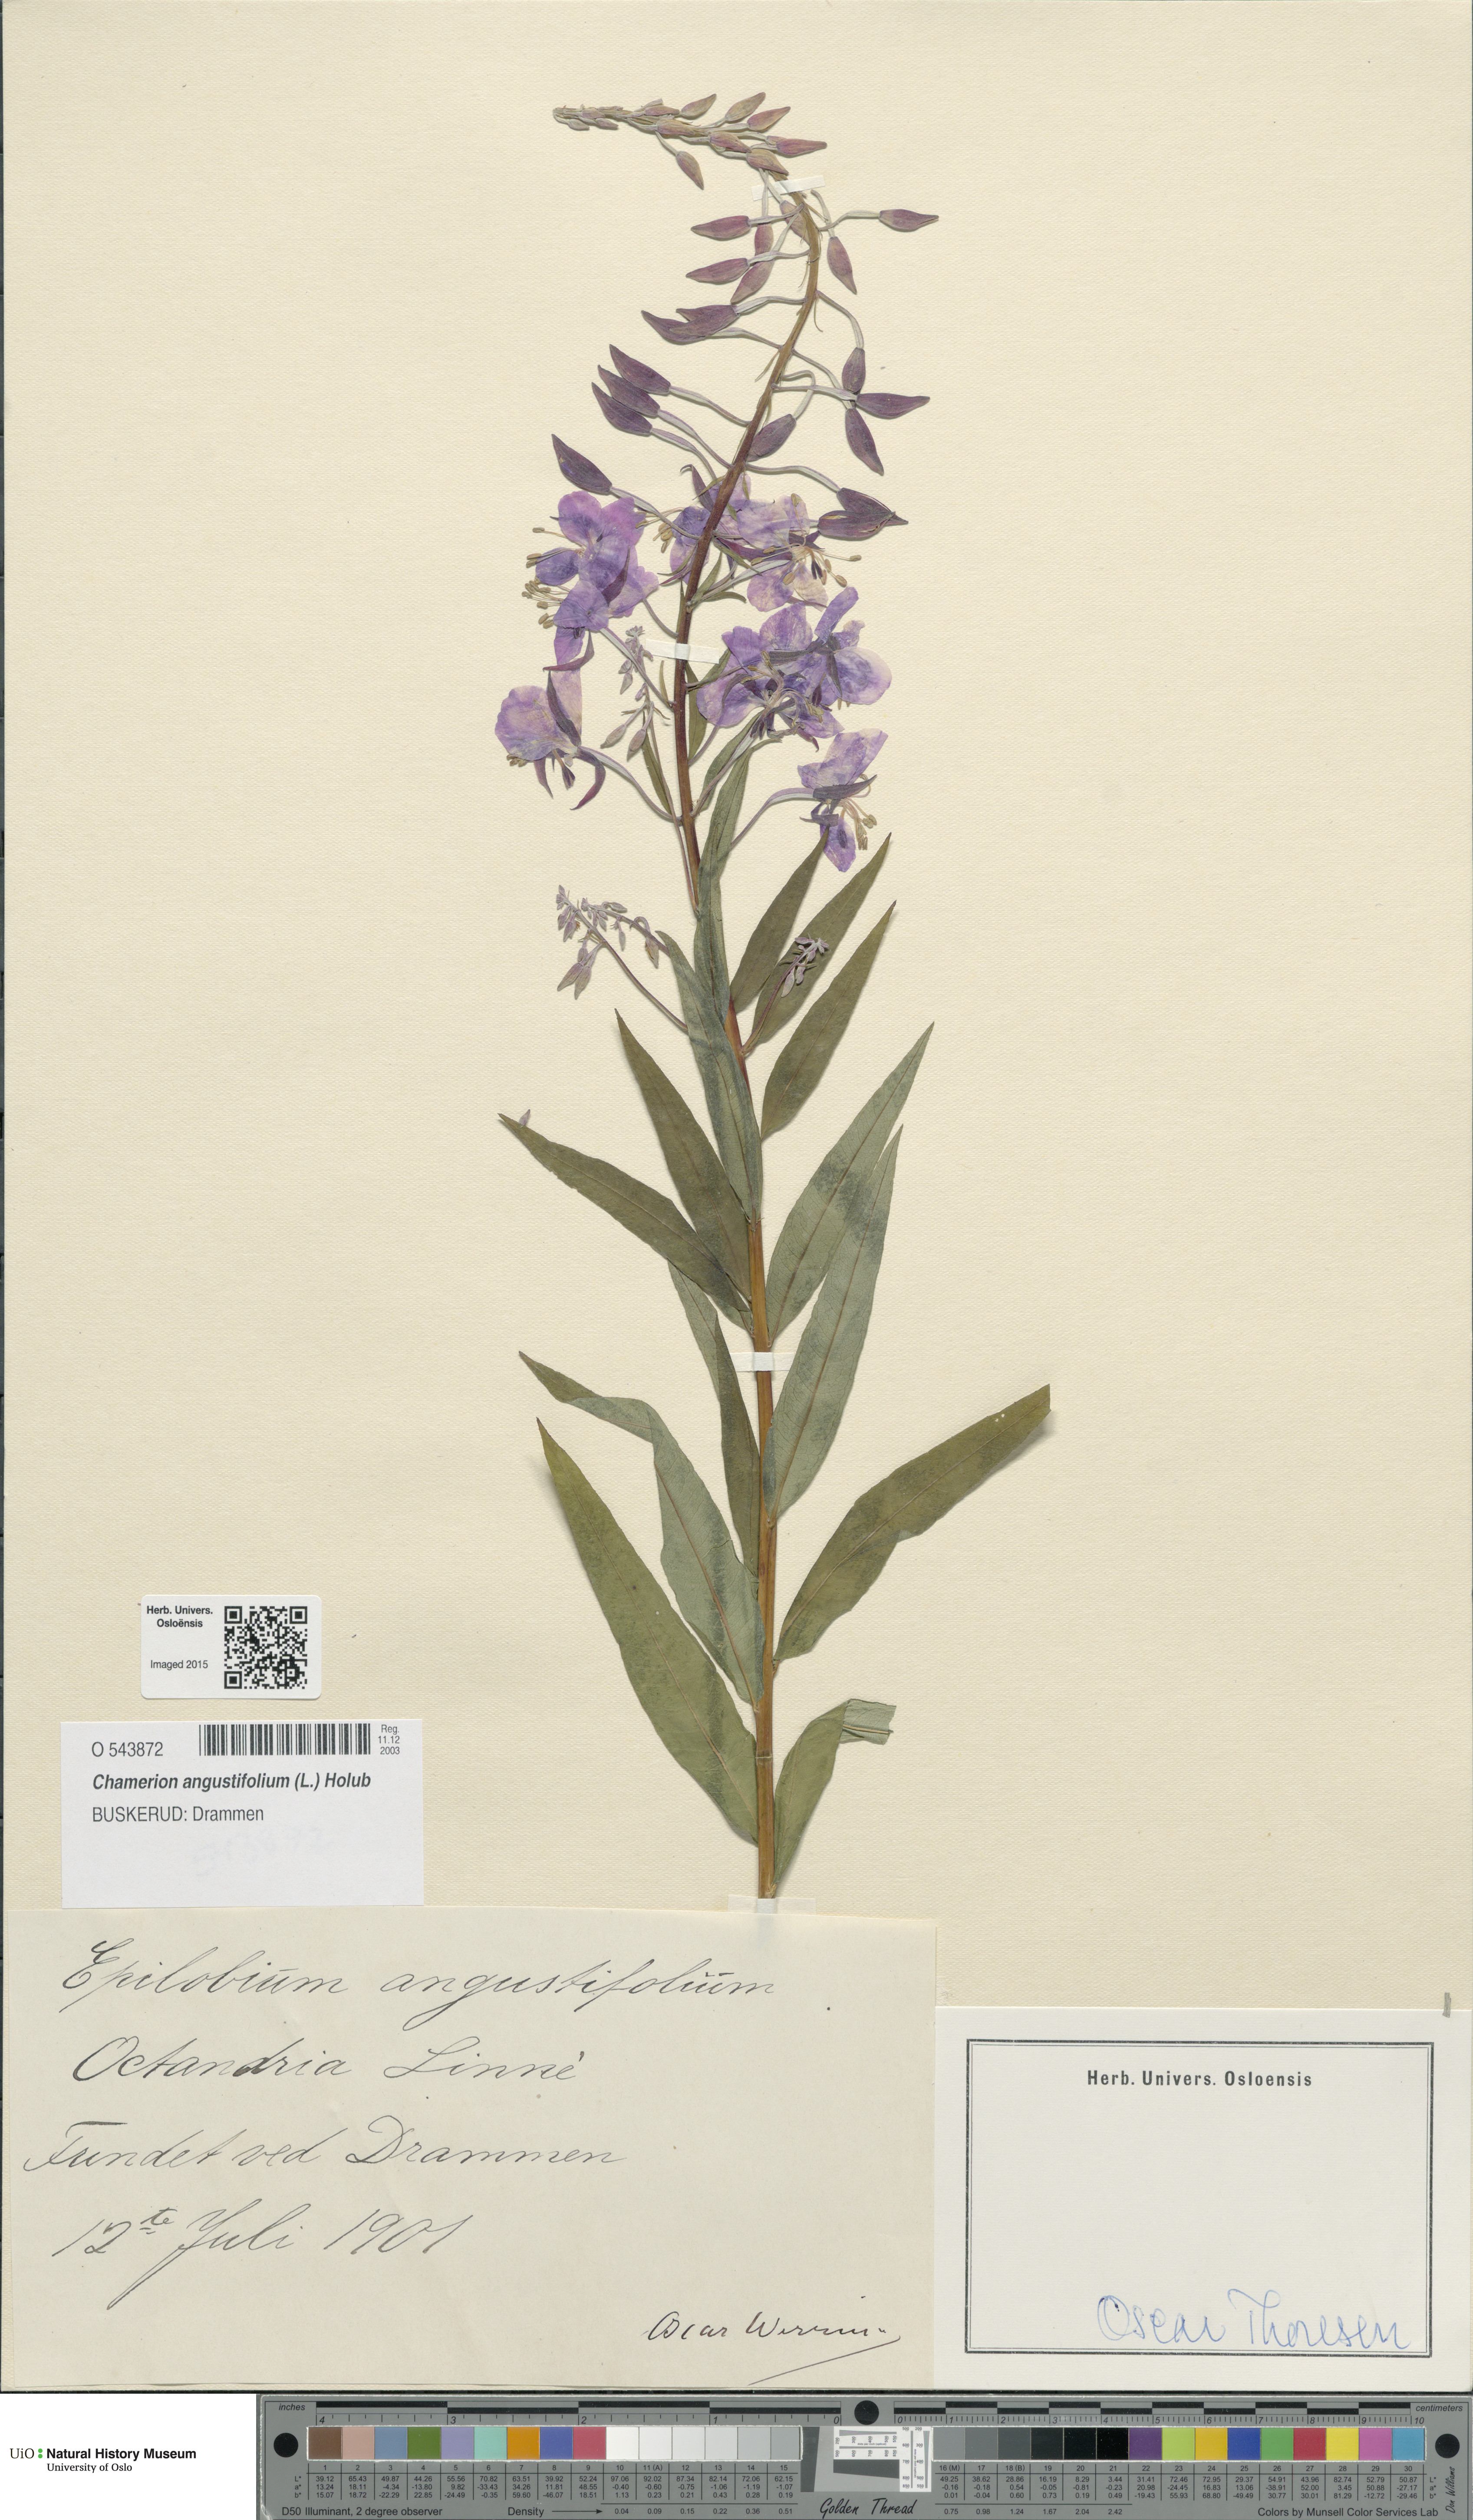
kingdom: Plantae
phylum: Tracheophyta
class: Magnoliopsida
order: Myrtales
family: Onagraceae
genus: Chamaenerion
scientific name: Chamaenerion angustifolium
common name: Fireweed
